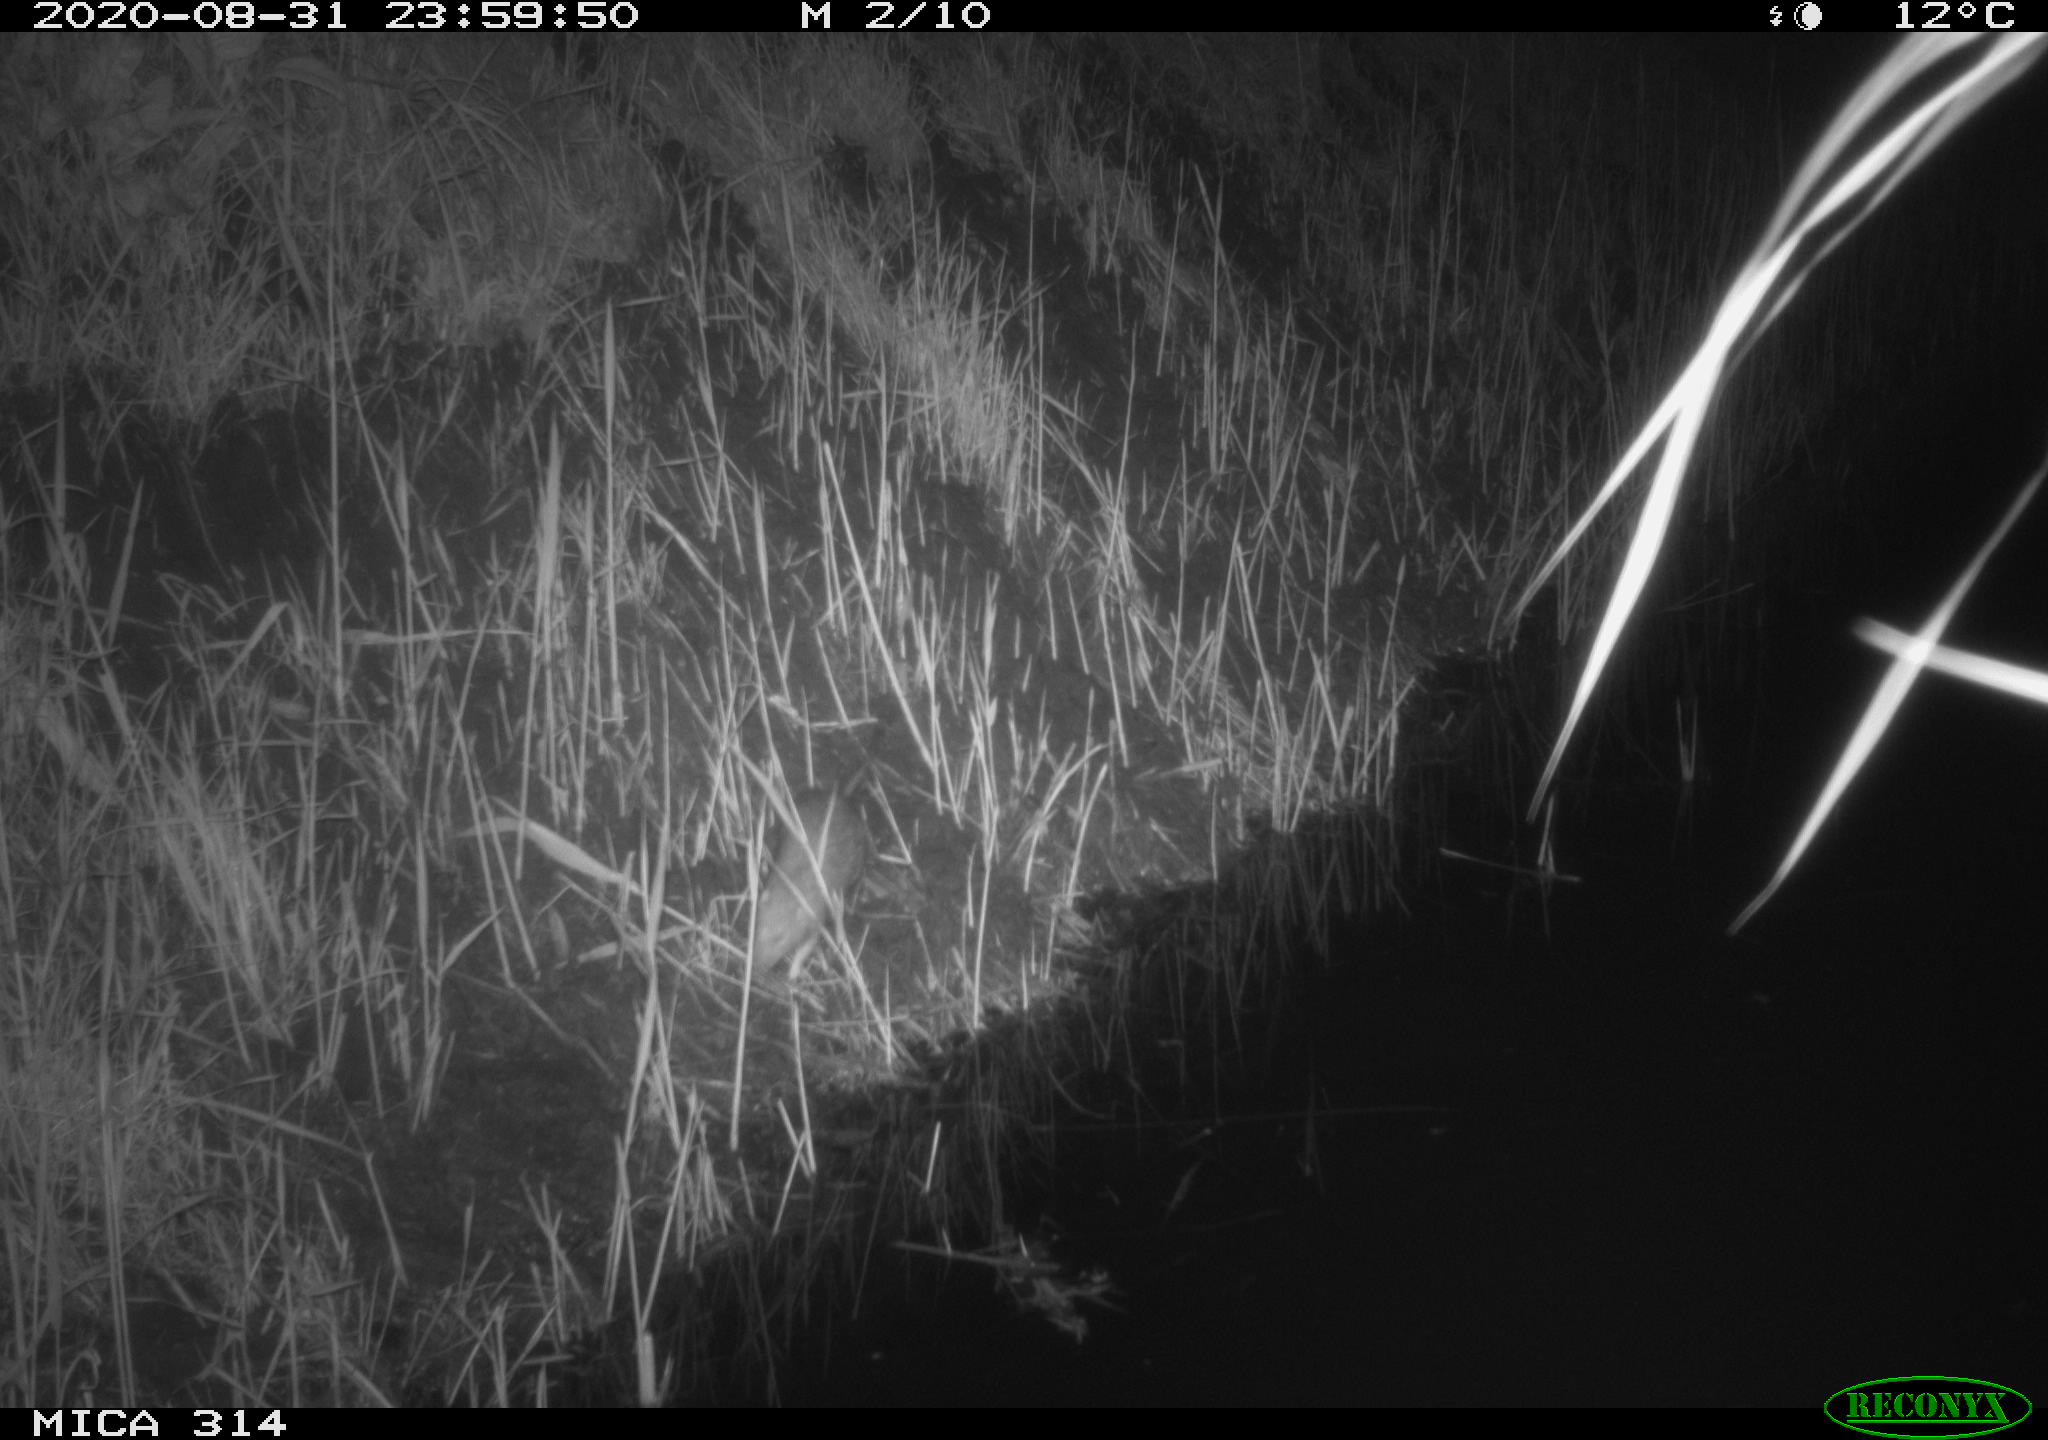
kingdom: Animalia
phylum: Chordata
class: Mammalia
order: Rodentia
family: Muridae
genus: Rattus
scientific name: Rattus norvegicus
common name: Brown rat
